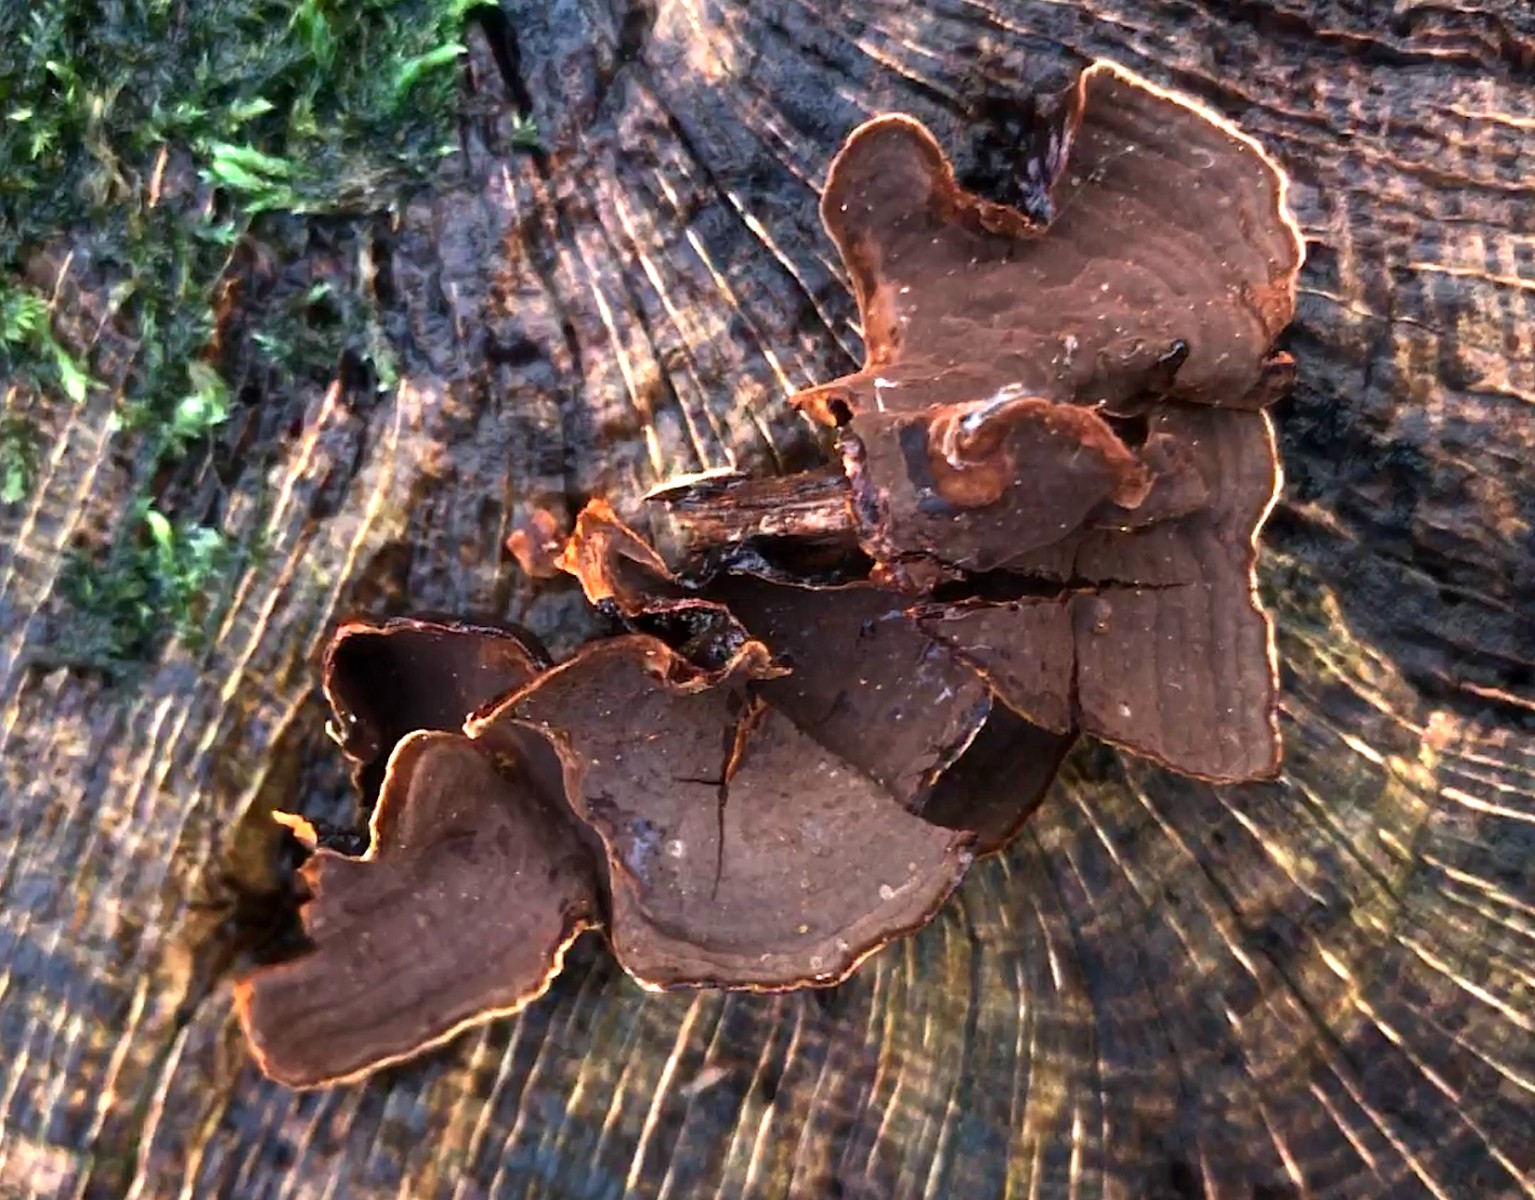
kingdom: Fungi
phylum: Basidiomycota
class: Agaricomycetes
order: Hymenochaetales
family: Hymenochaetaceae
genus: Hymenochaete
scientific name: Hymenochaete rubiginosa
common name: stiv ruslædersvamp
